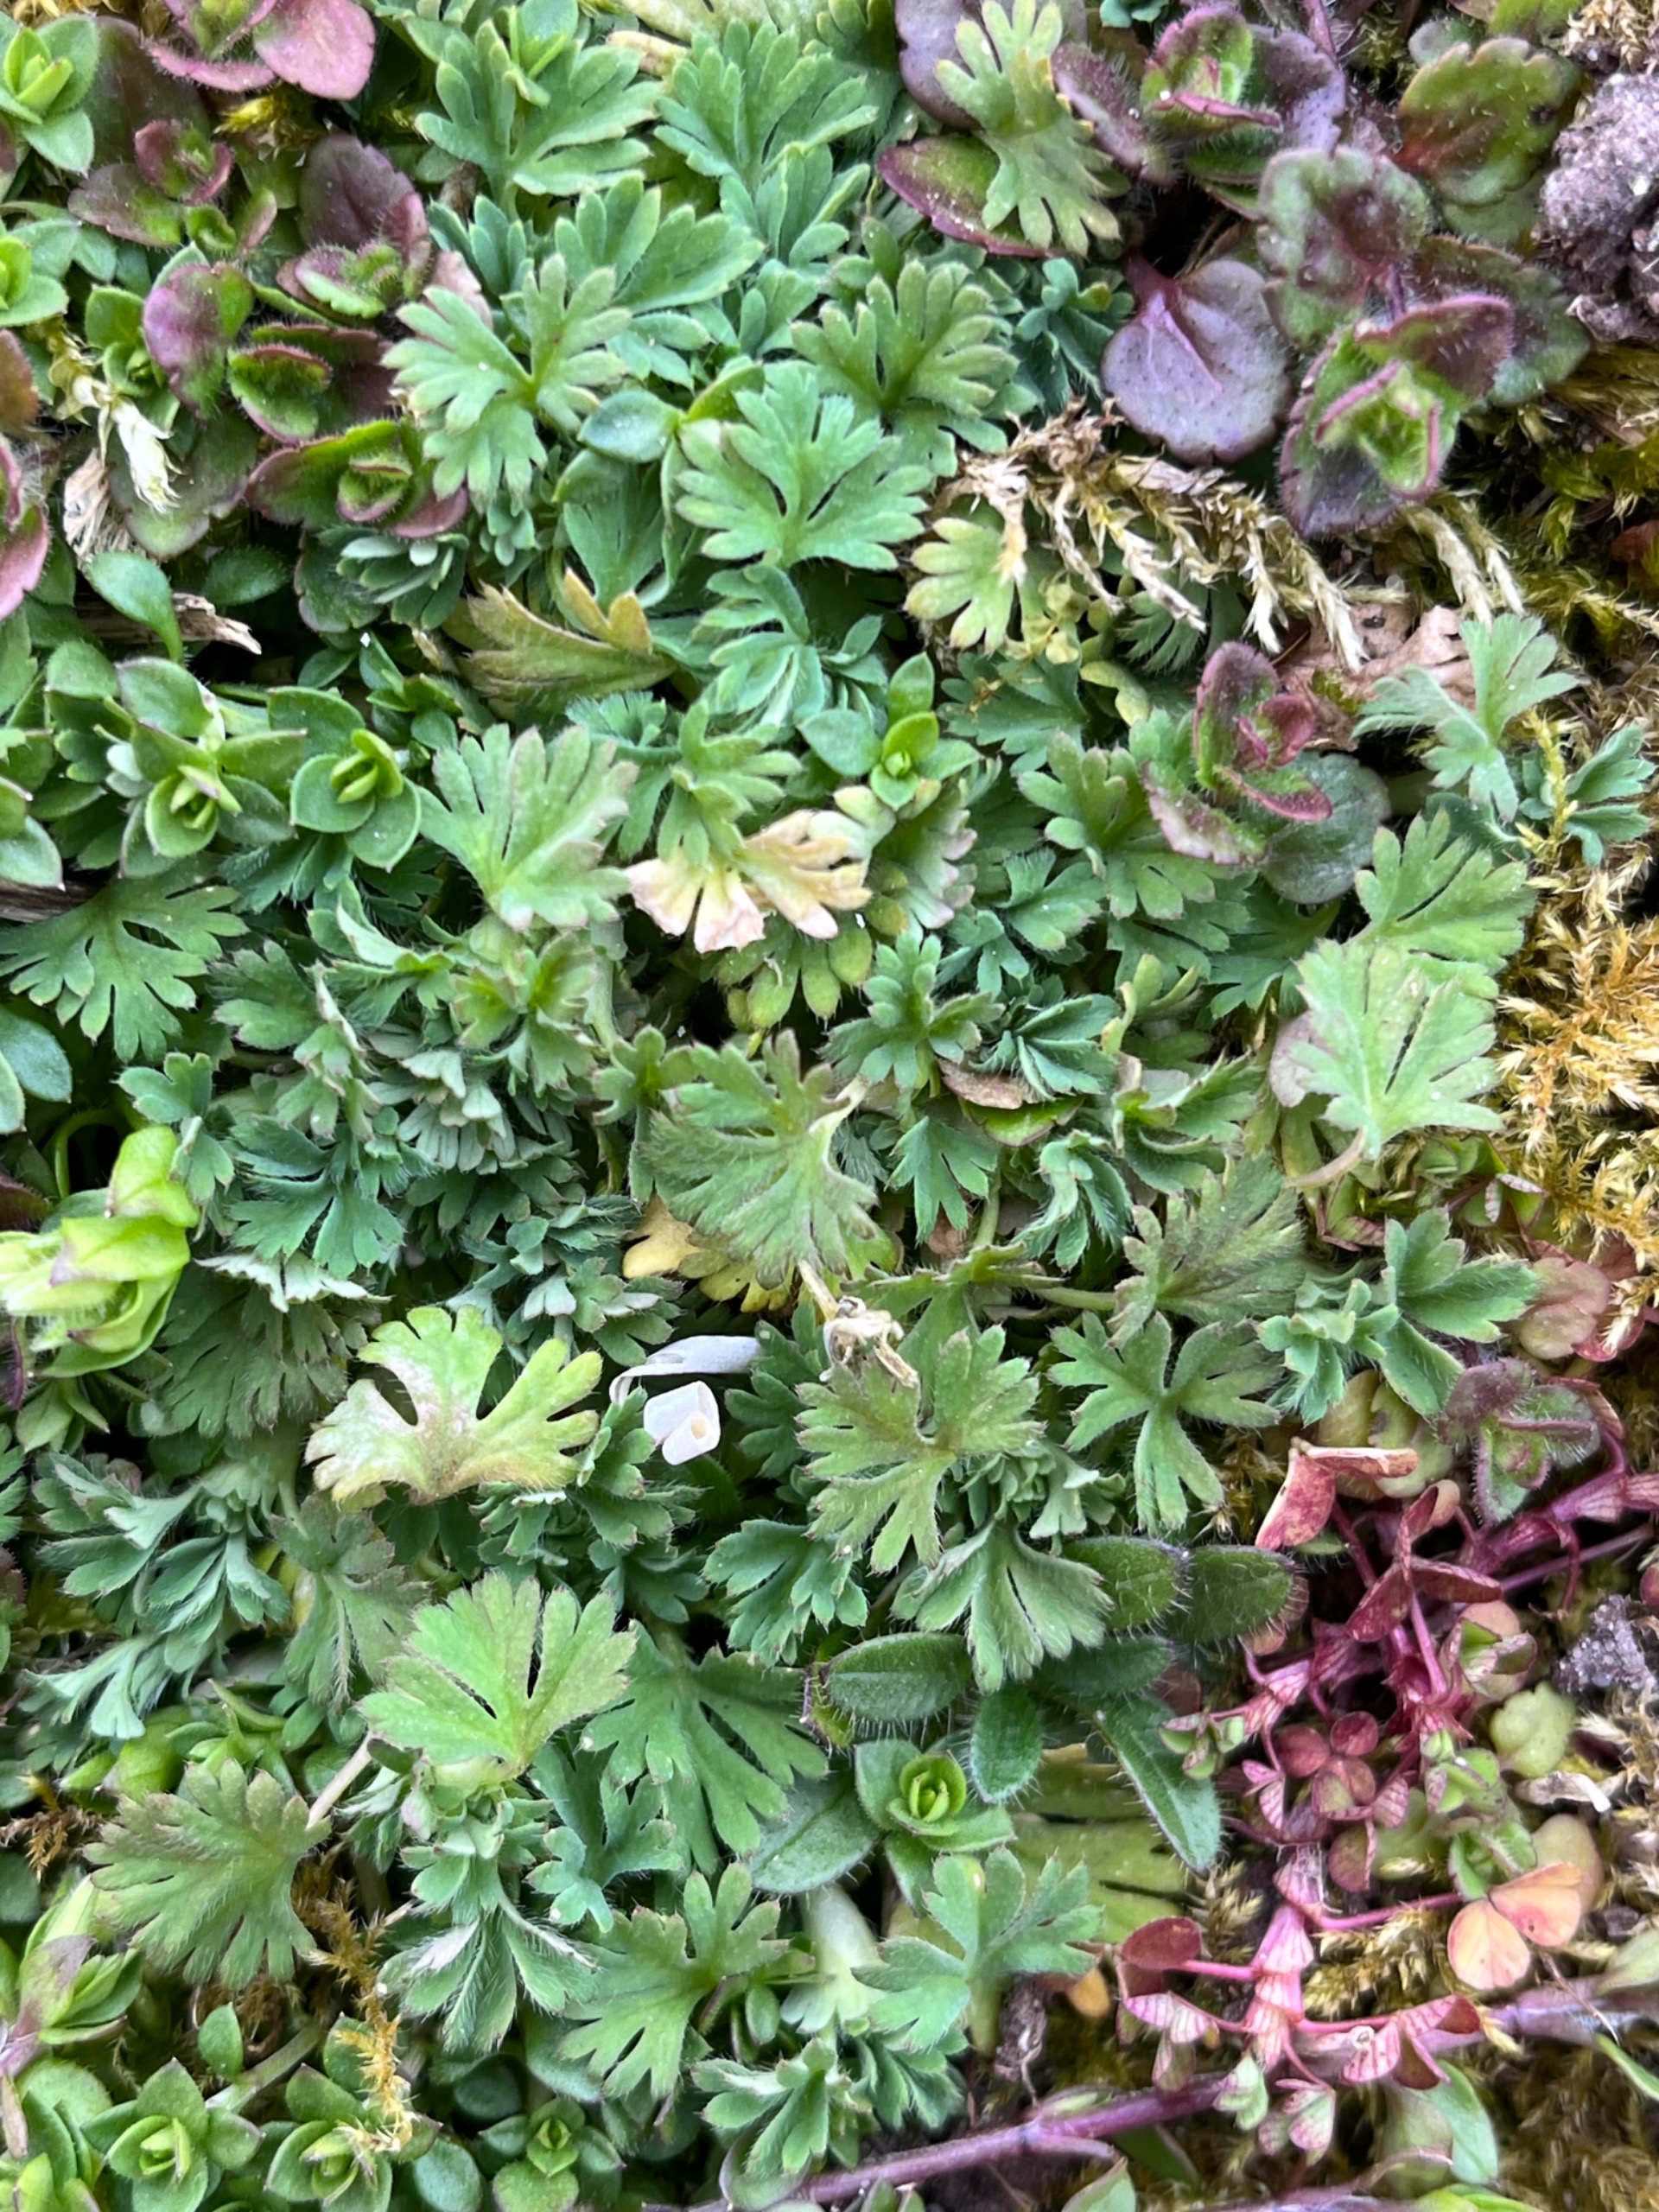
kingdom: Plantae
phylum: Tracheophyta
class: Magnoliopsida
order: Rosales
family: Rosaceae
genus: Aphanes
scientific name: Aphanes arvensis
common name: Dværgløvefod
